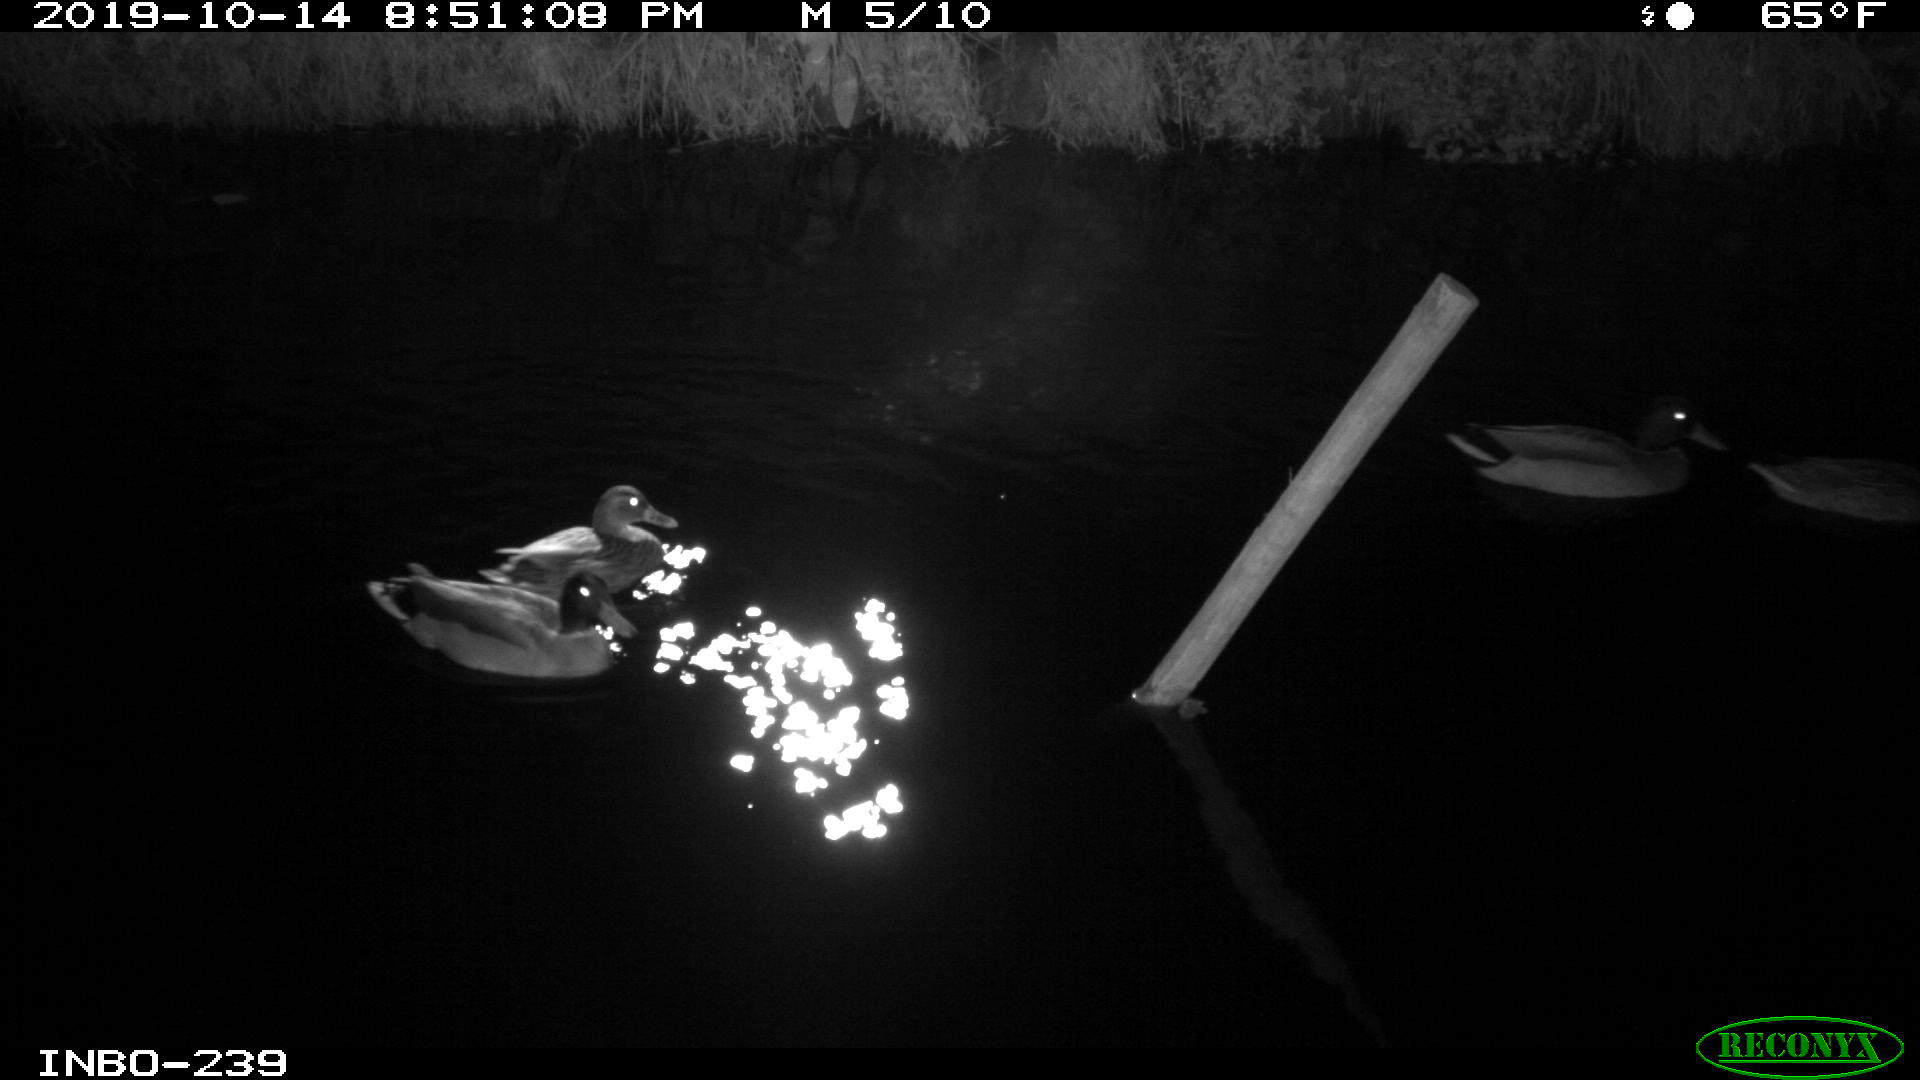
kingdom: Animalia
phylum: Chordata
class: Aves
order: Anseriformes
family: Anatidae
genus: Anas
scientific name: Anas platyrhynchos
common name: Mallard
